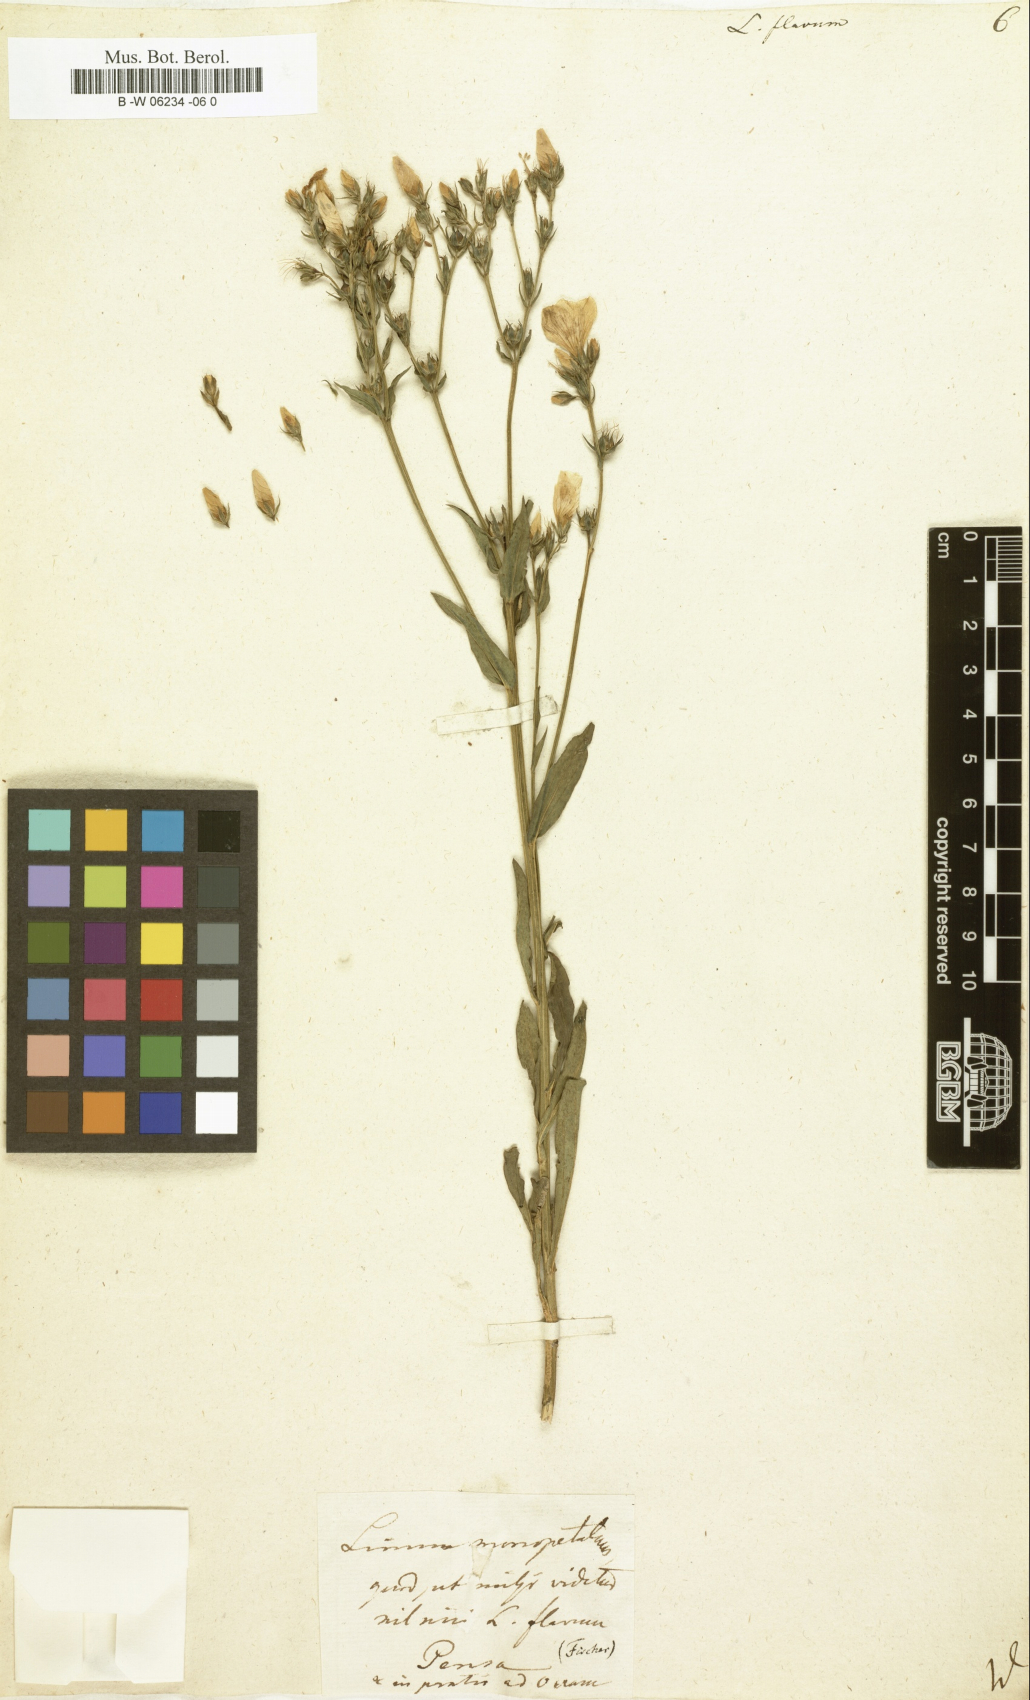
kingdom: Plantae
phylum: Tracheophyta
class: Magnoliopsida
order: Malpighiales
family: Linaceae
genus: Linum
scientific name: Linum flavum
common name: Yellow flax
